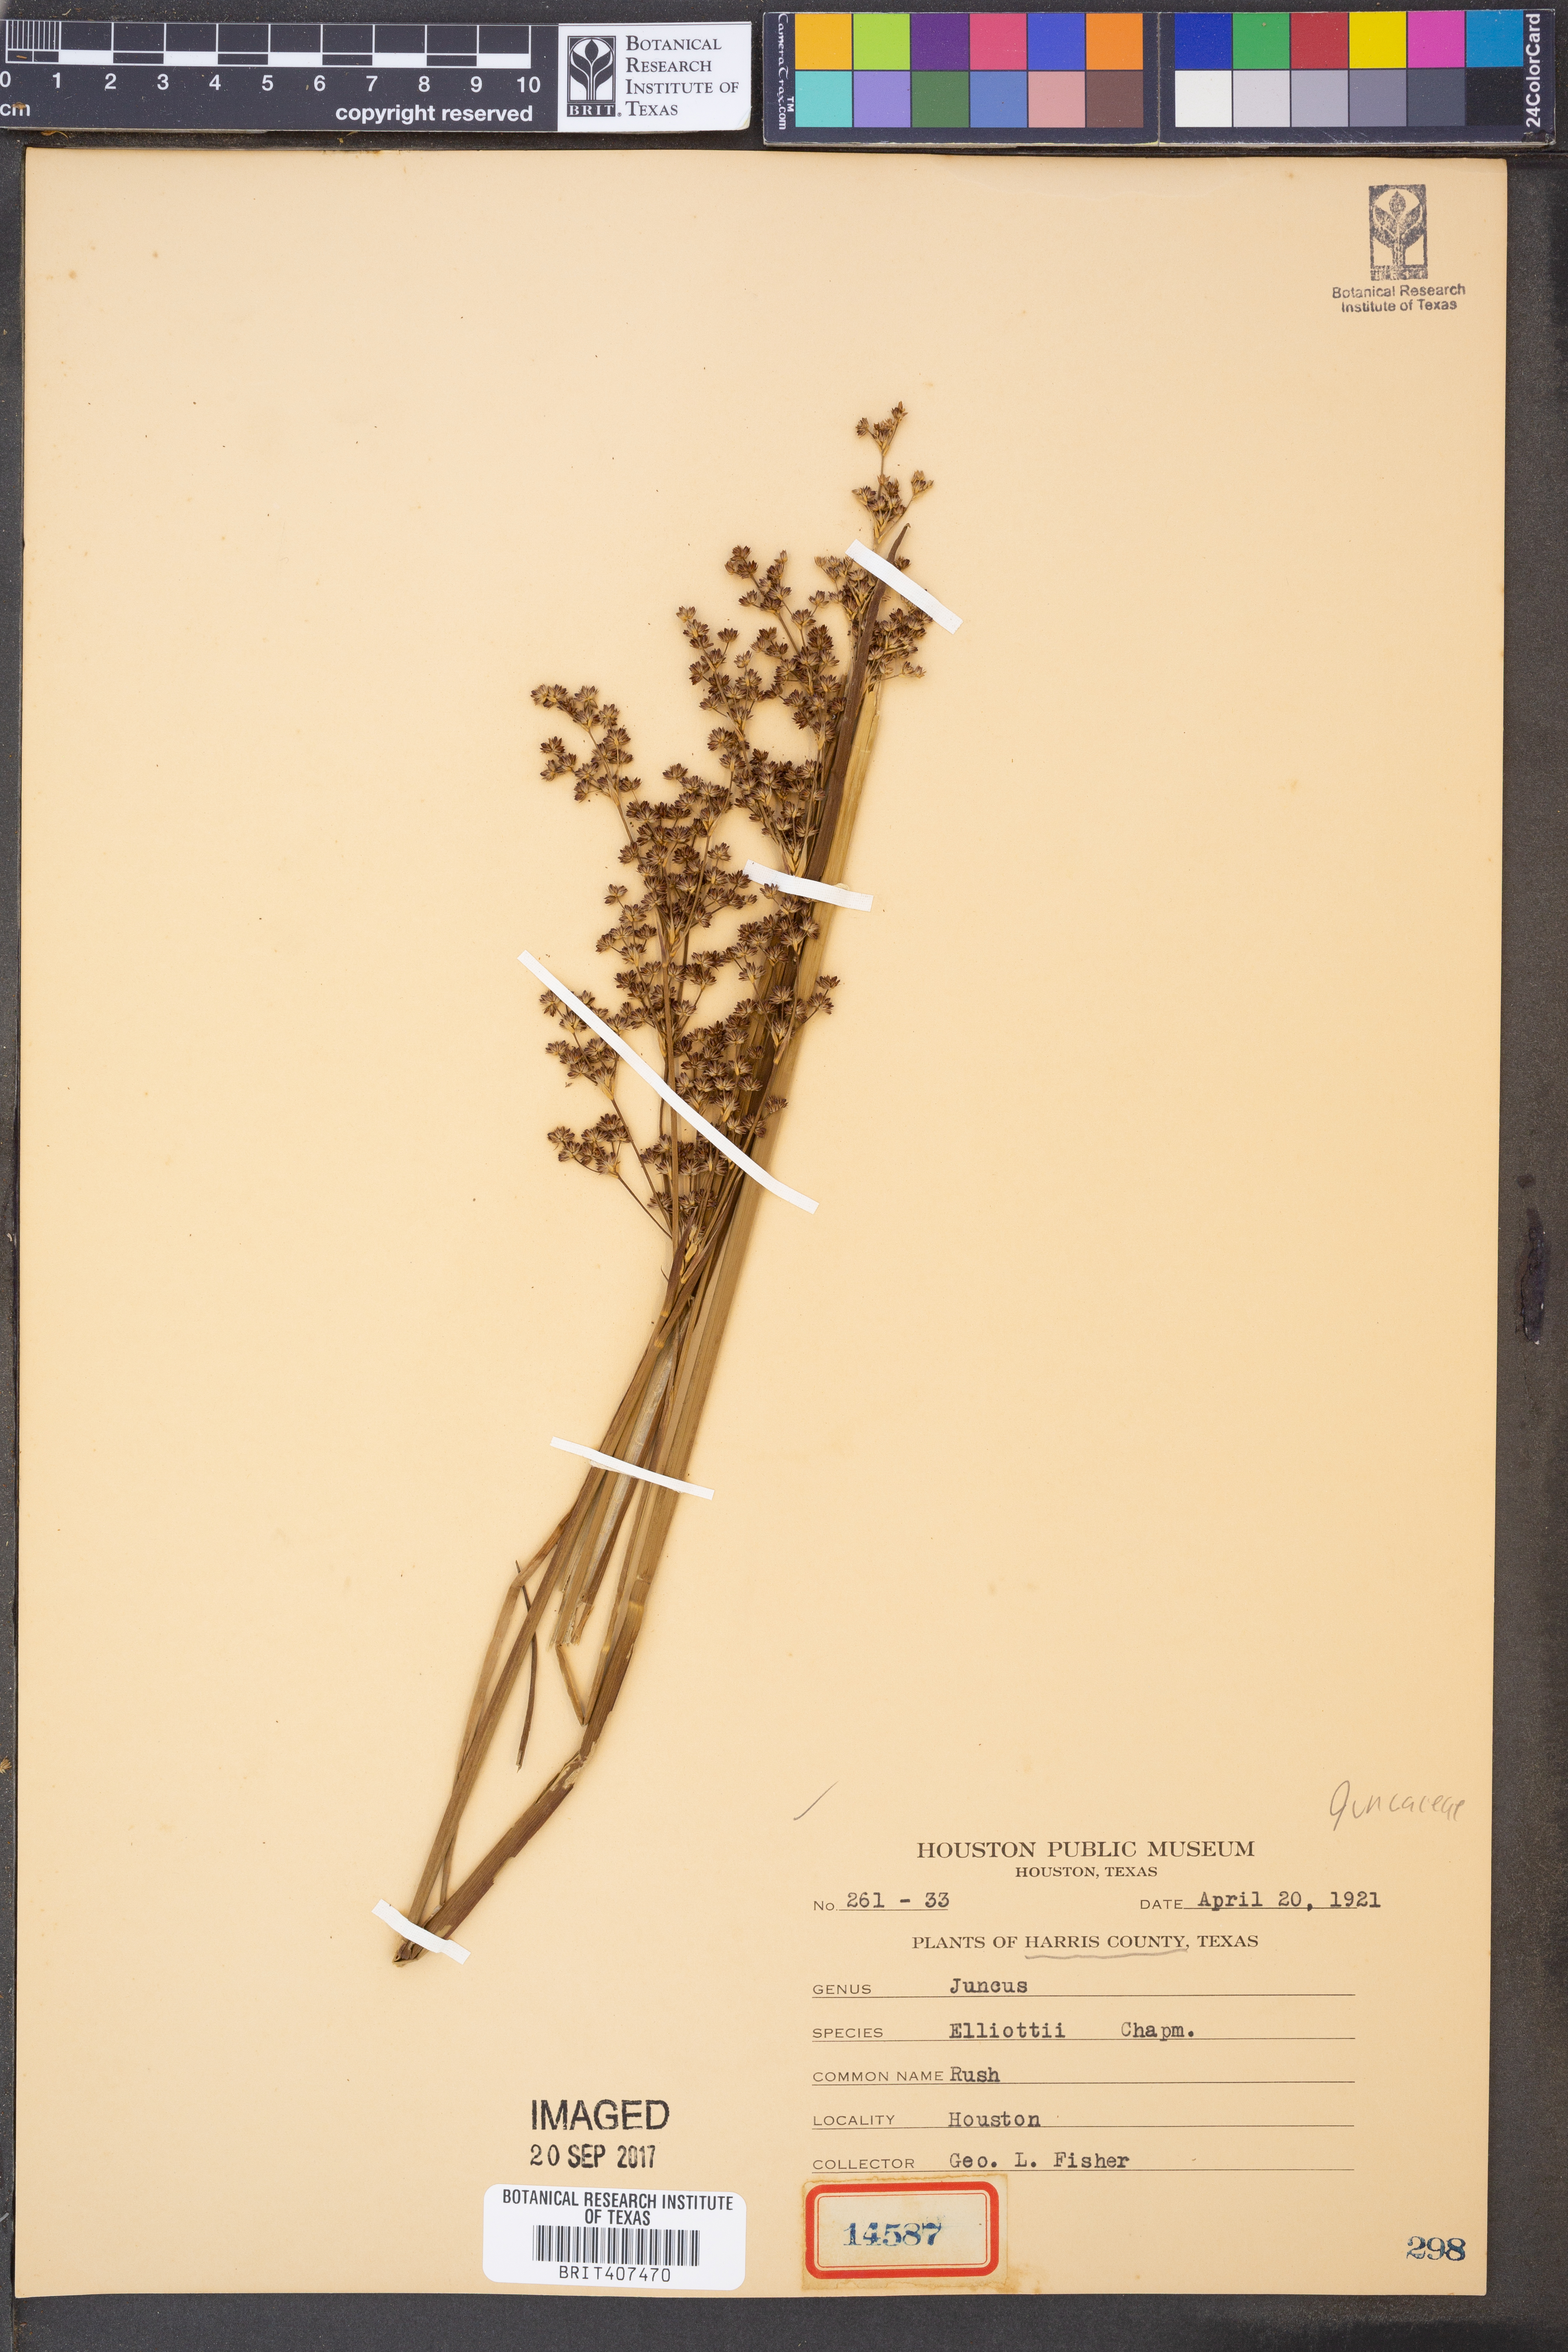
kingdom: Plantae
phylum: Tracheophyta
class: Liliopsida
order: Poales
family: Juncaceae
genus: Juncus
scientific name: Juncus elliottii
